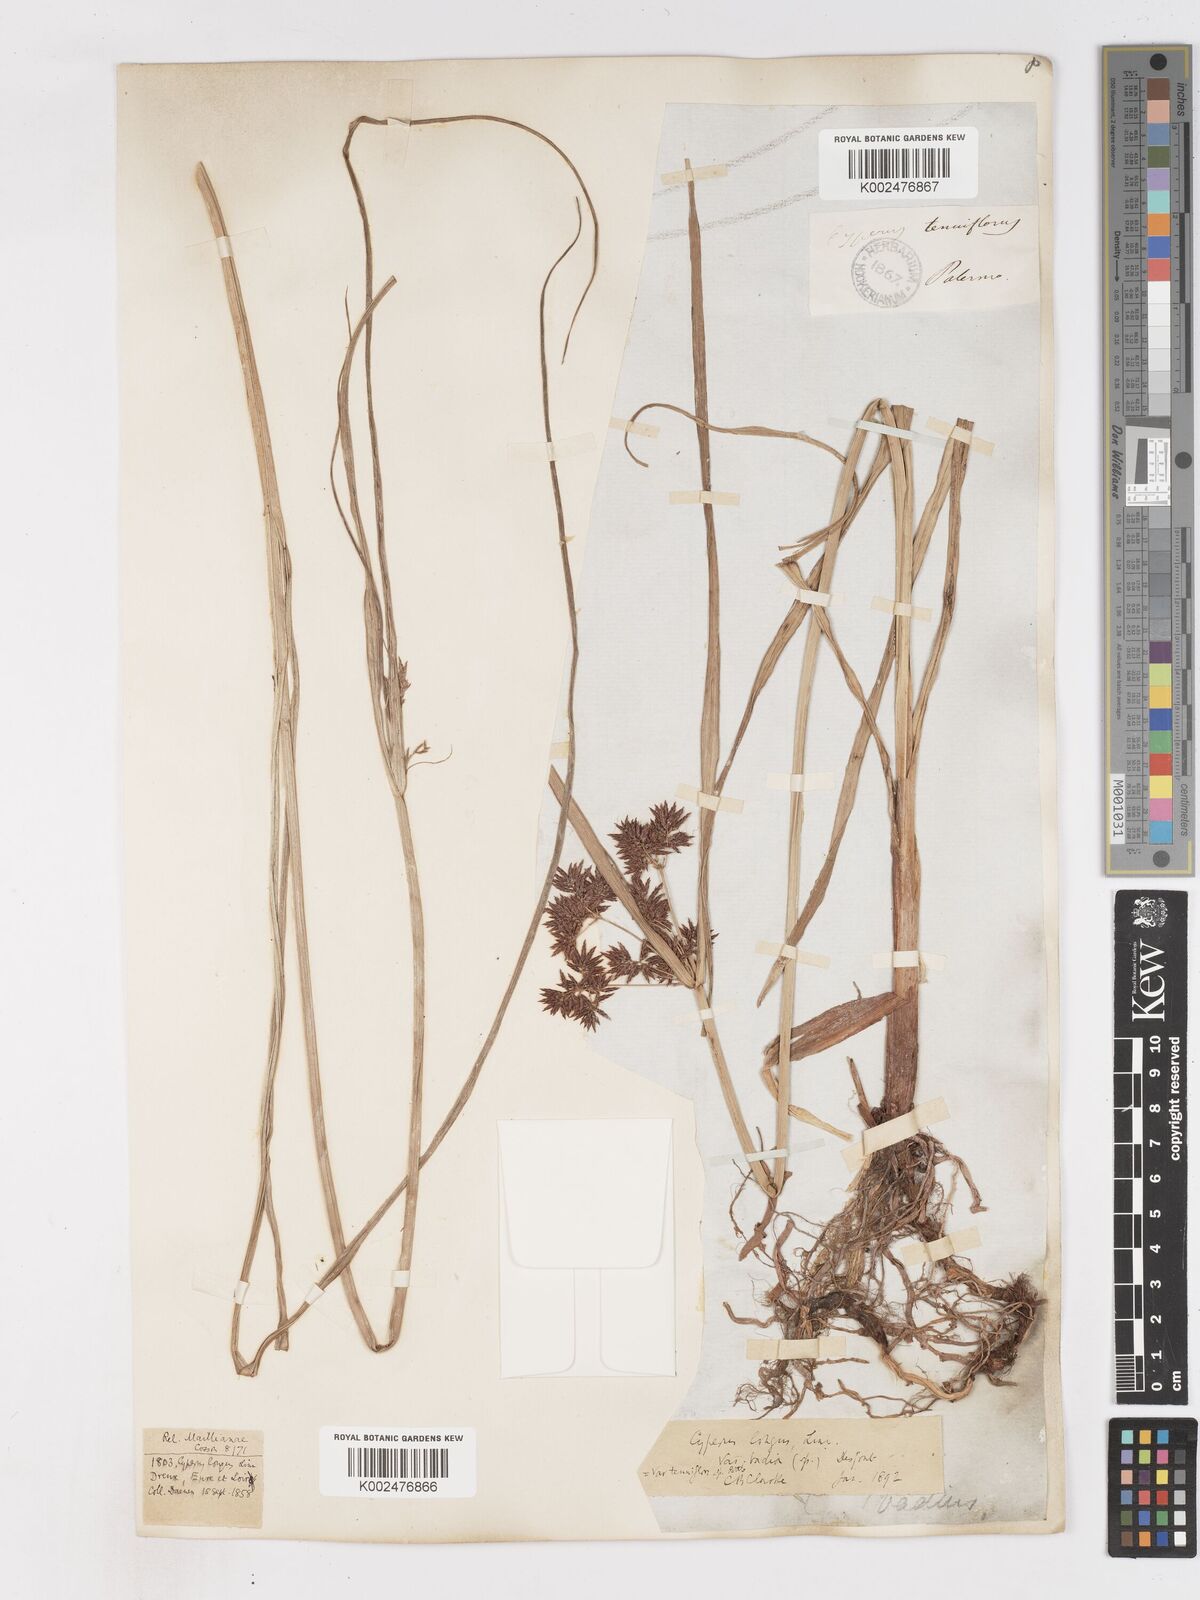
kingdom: Plantae
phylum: Tracheophyta
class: Liliopsida
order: Poales
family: Cyperaceae
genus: Cyperus
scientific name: Cyperus longus
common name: Galingale
